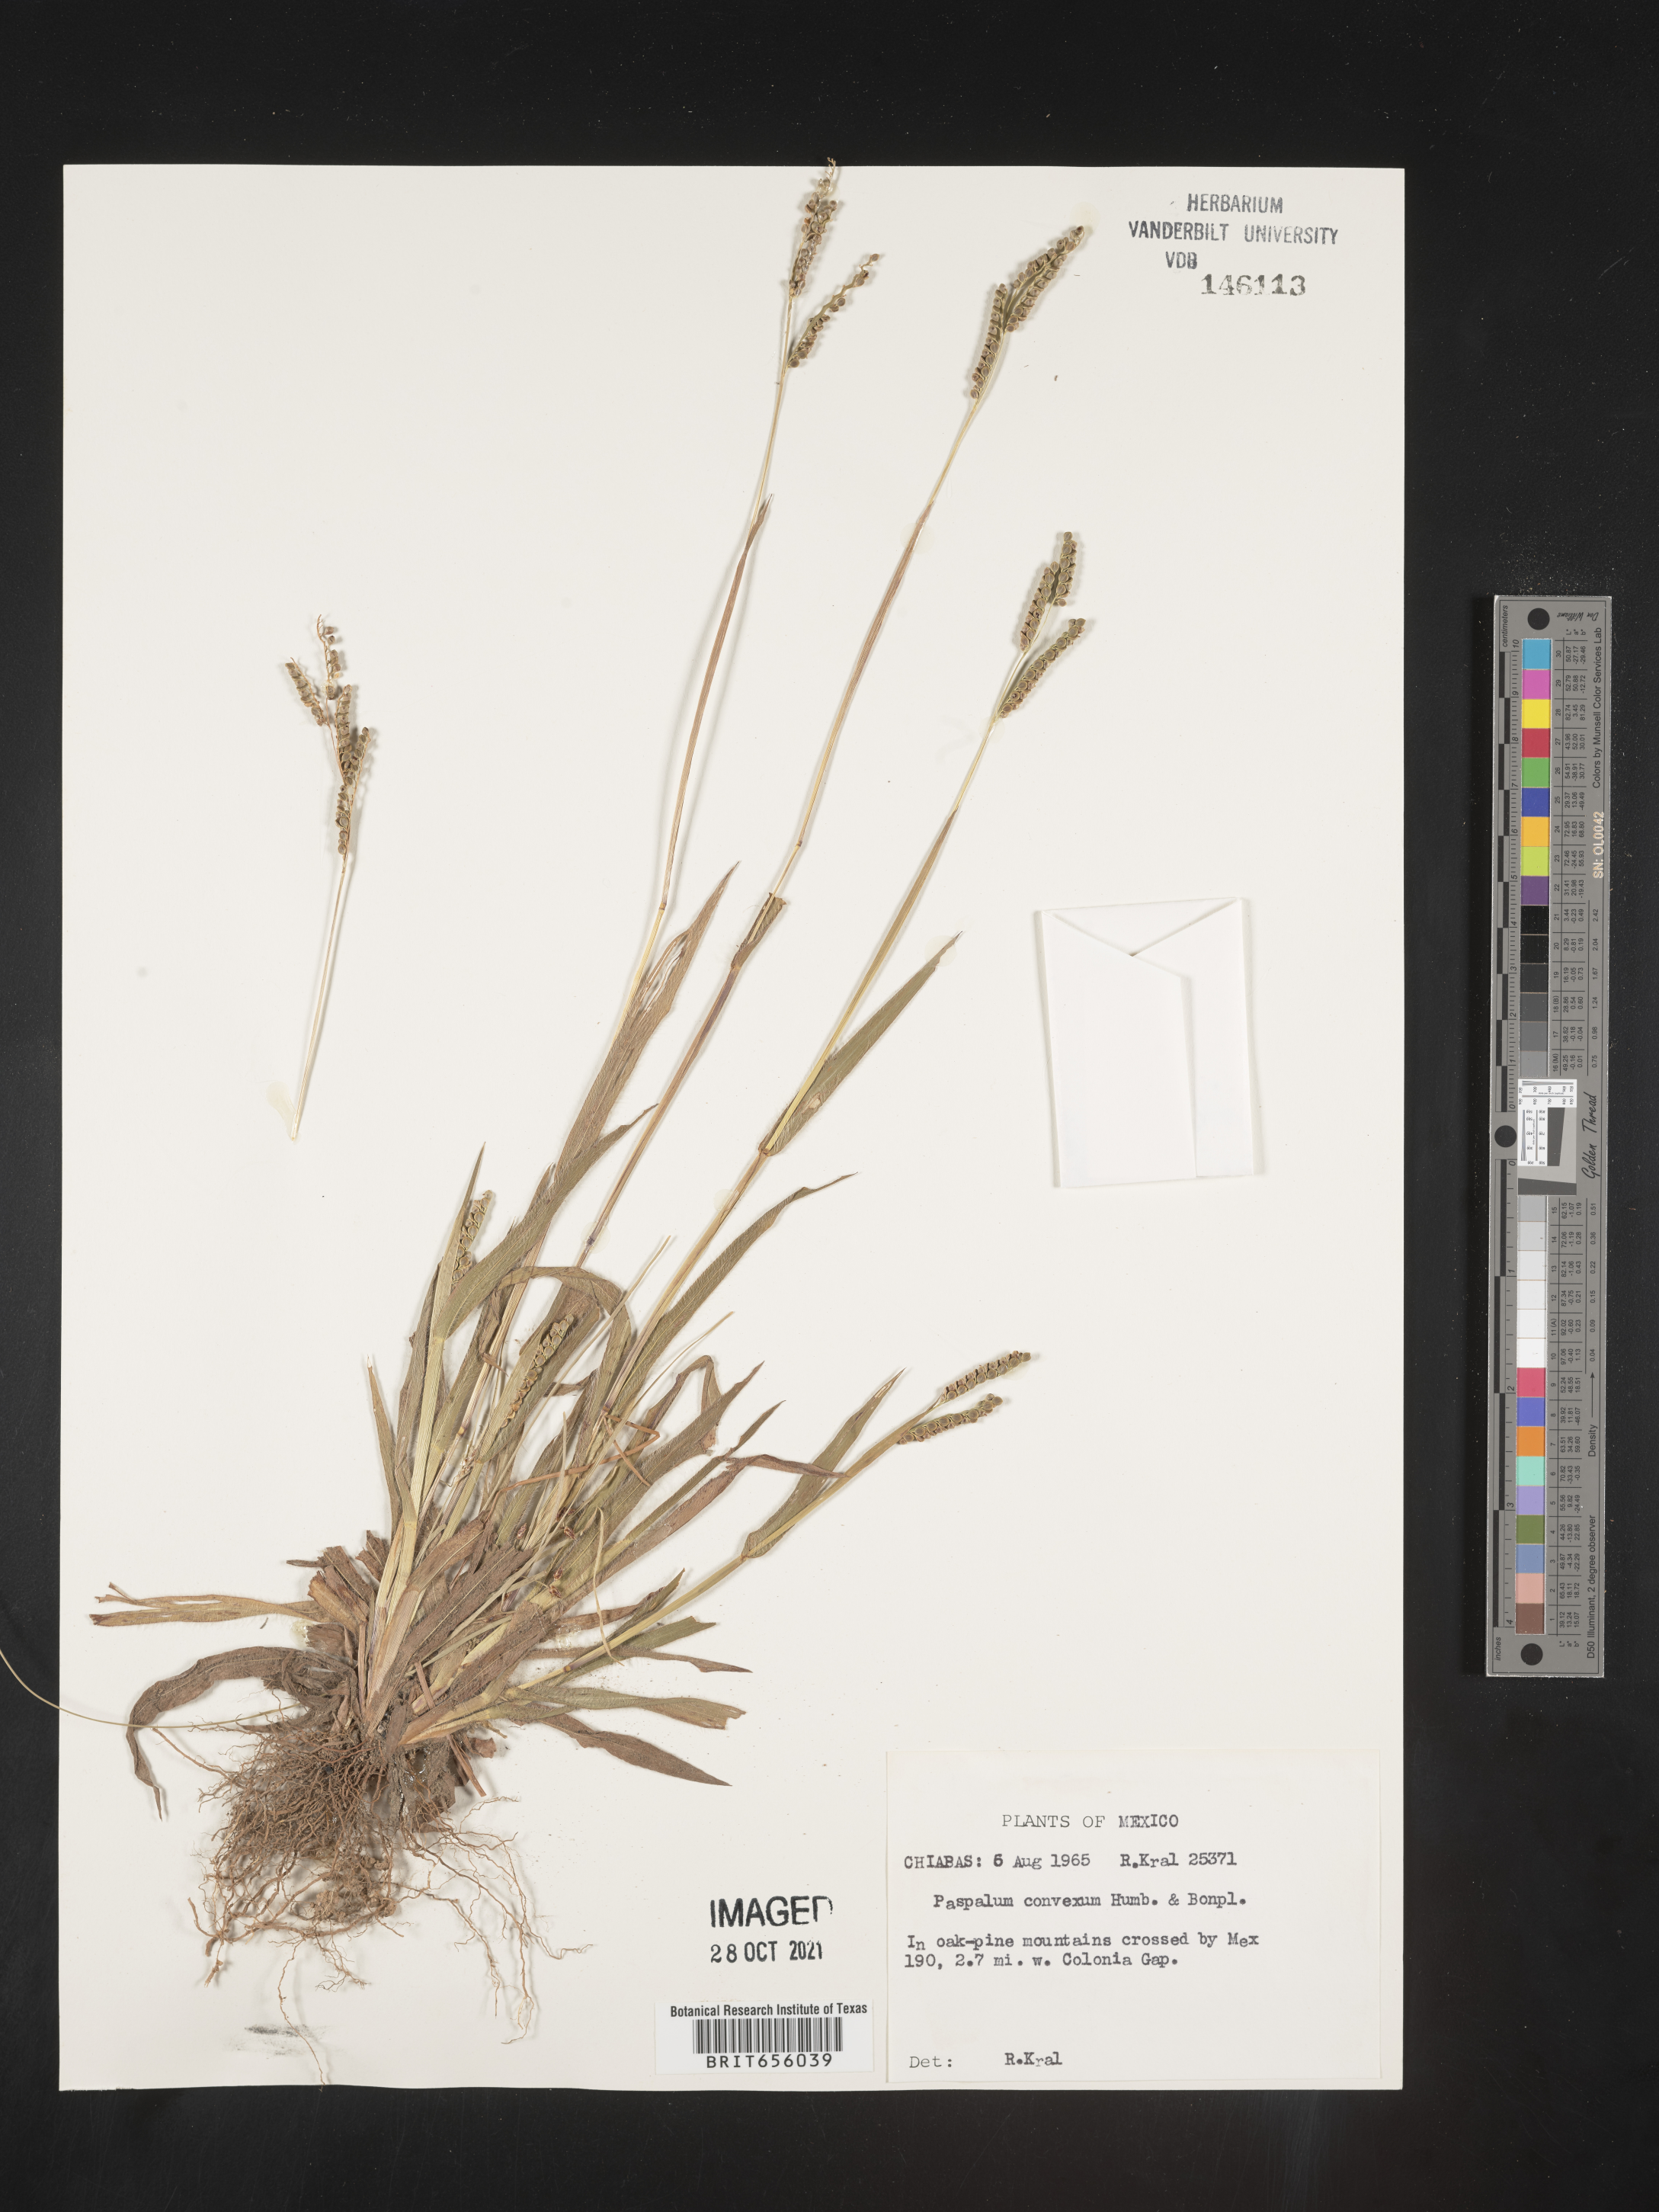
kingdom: Plantae
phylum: Tracheophyta
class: Liliopsida
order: Poales
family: Poaceae
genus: Paspalum
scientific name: Paspalum
